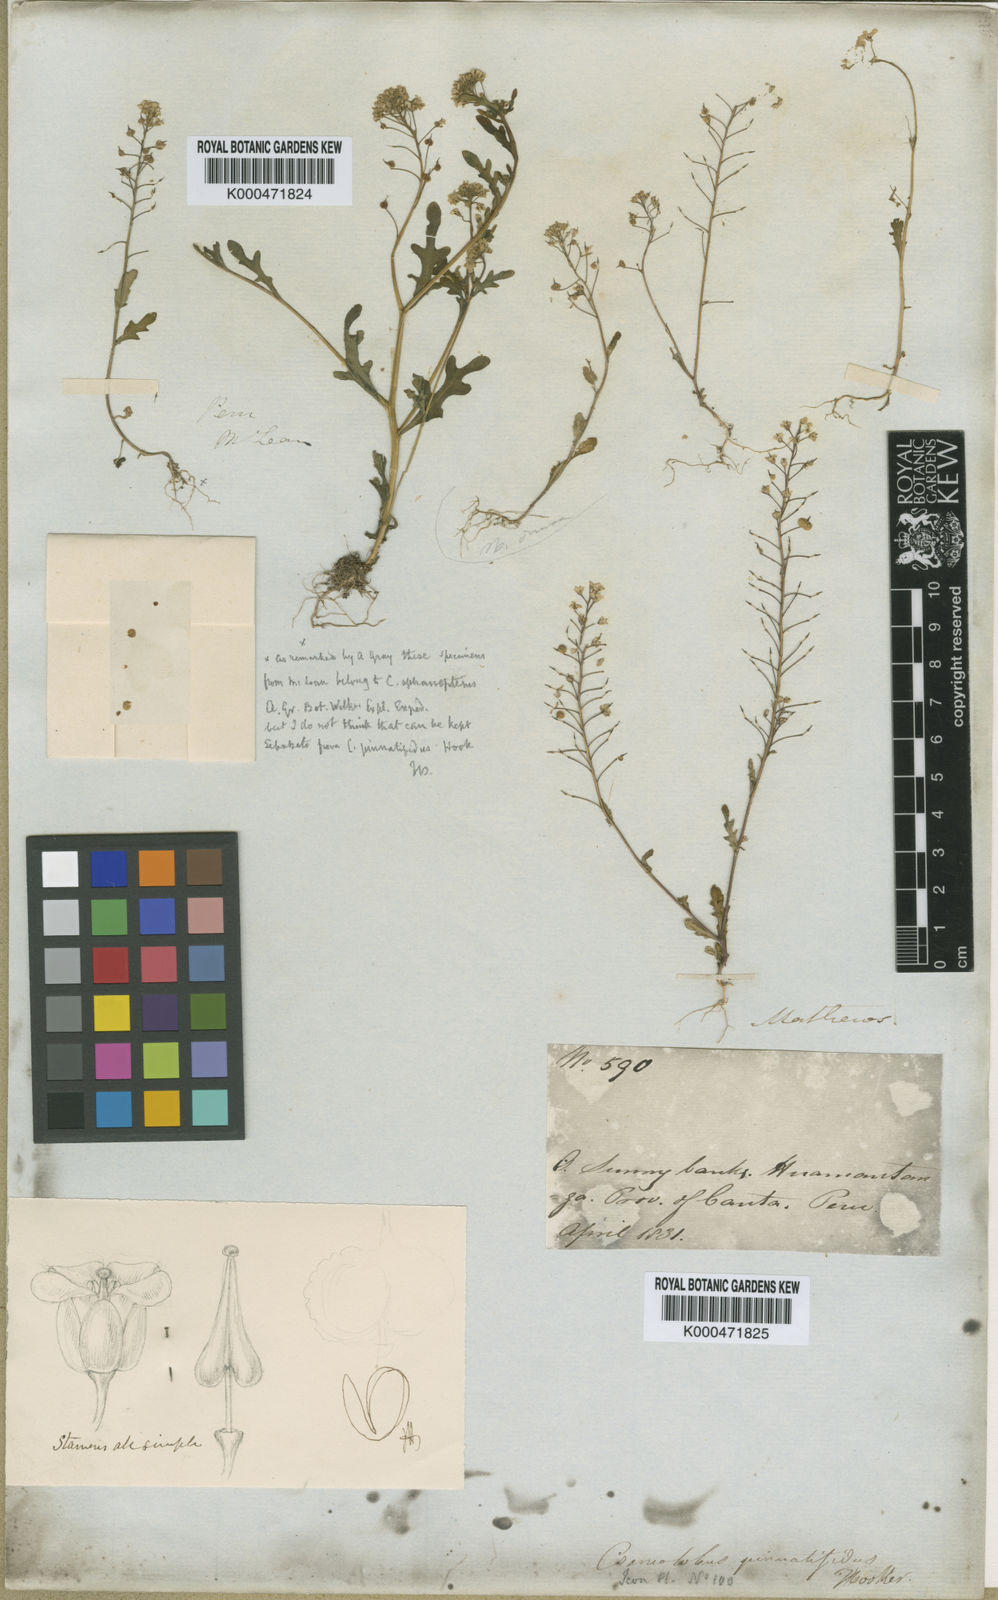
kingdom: Plantae
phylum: Tracheophyta
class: Magnoliopsida
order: Brassicales
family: Brassicaceae
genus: Cremolobus
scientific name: Cremolobus chilensis
